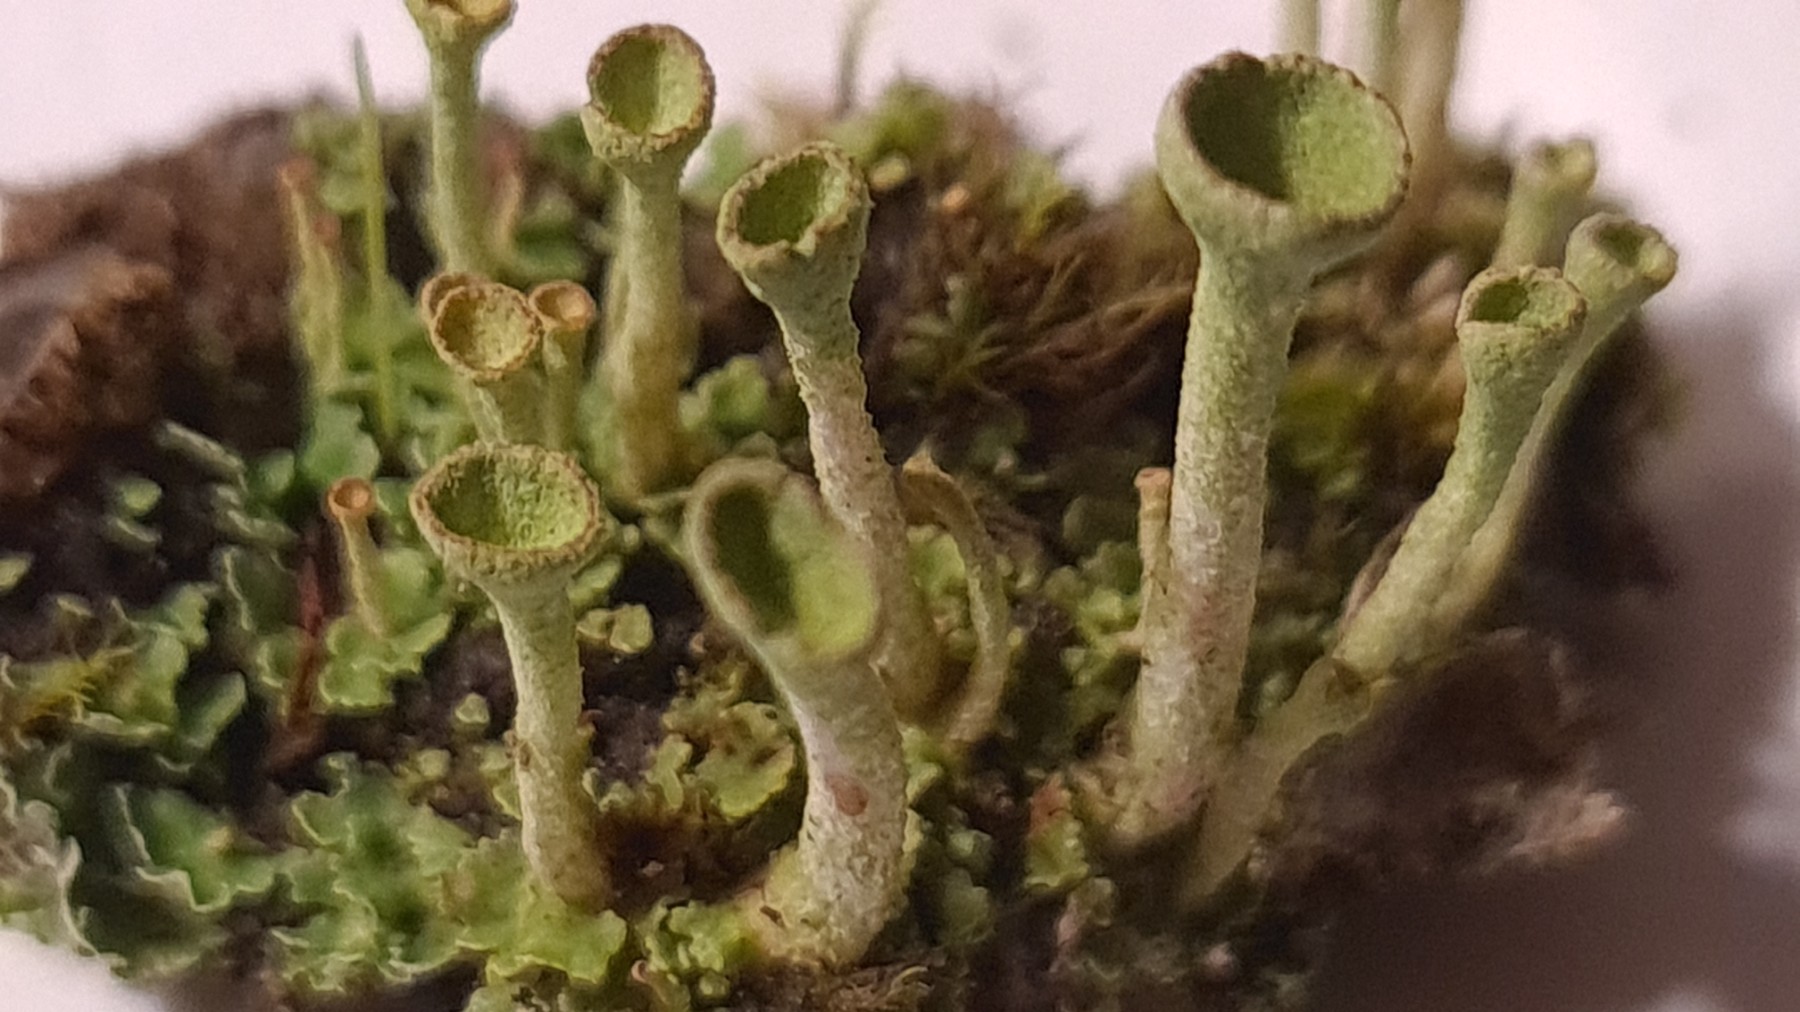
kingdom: Fungi
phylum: Ascomycota
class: Lecanoromycetes
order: Lecanorales
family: Cladoniaceae
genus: Cladonia
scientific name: Cladonia
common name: brungrøn bægerlav
